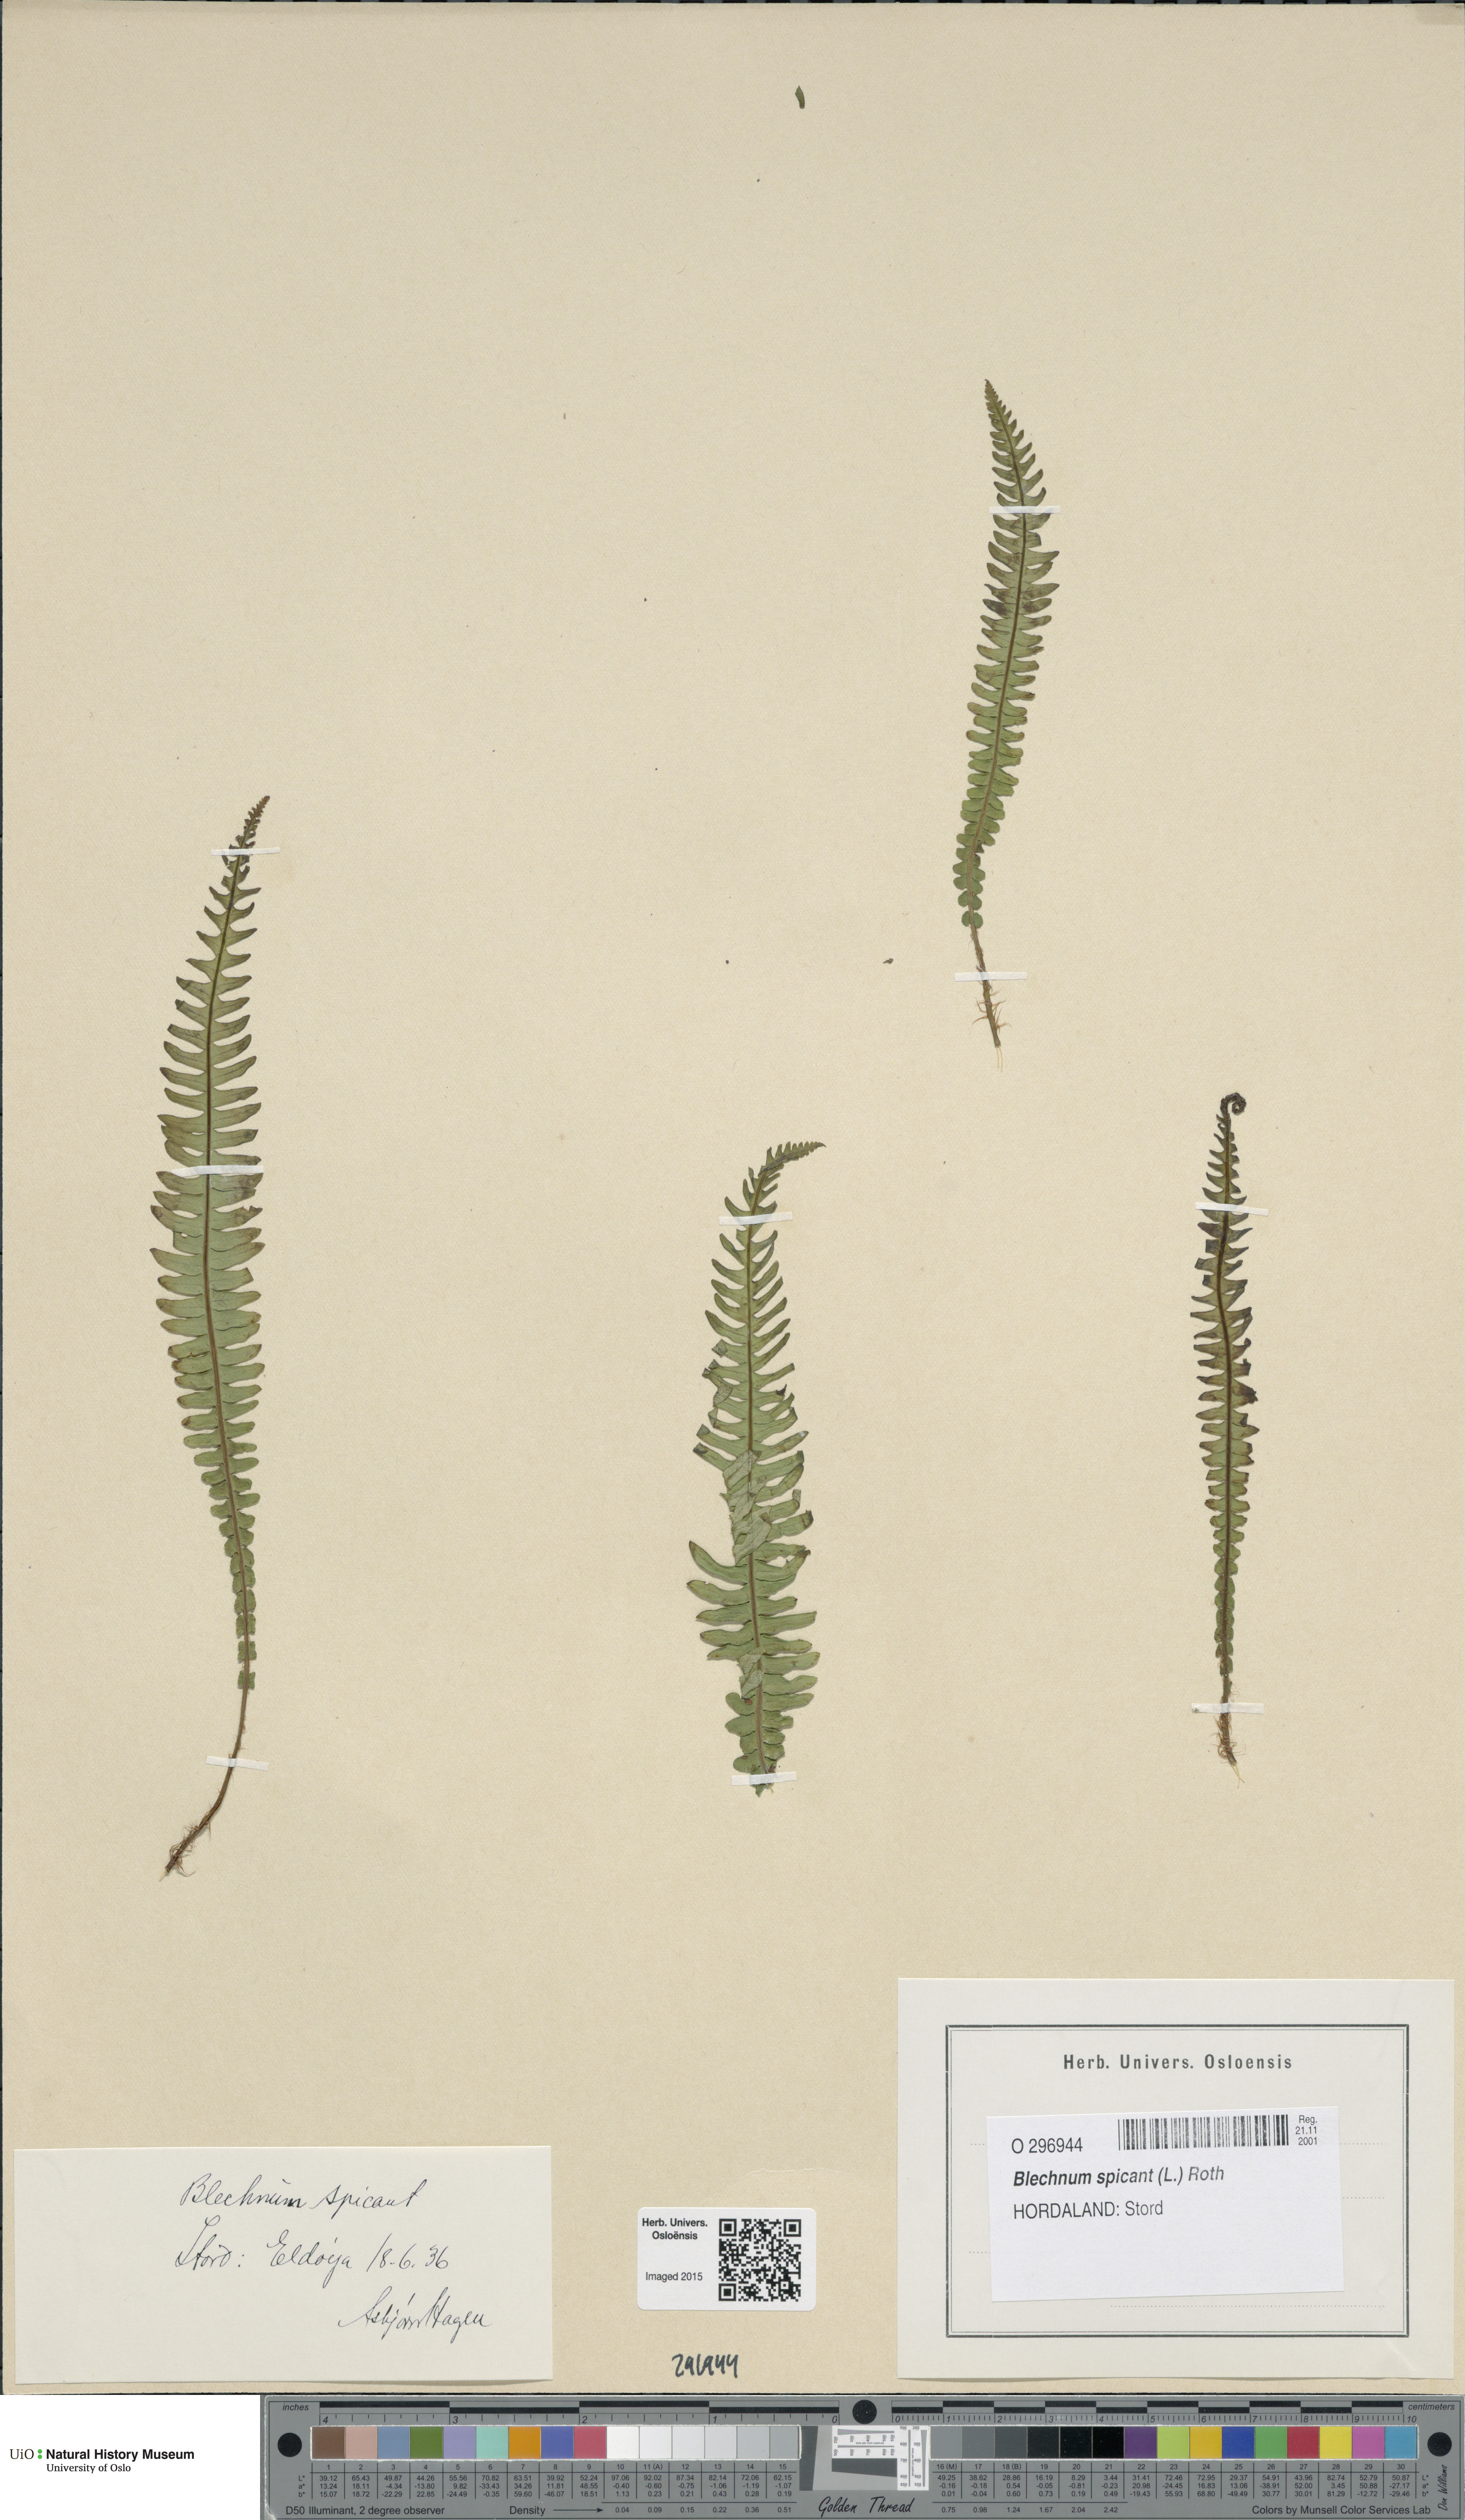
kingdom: Plantae
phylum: Tracheophyta
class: Polypodiopsida
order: Polypodiales
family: Blechnaceae
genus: Struthiopteris
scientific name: Struthiopteris spicant
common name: Deer fern
